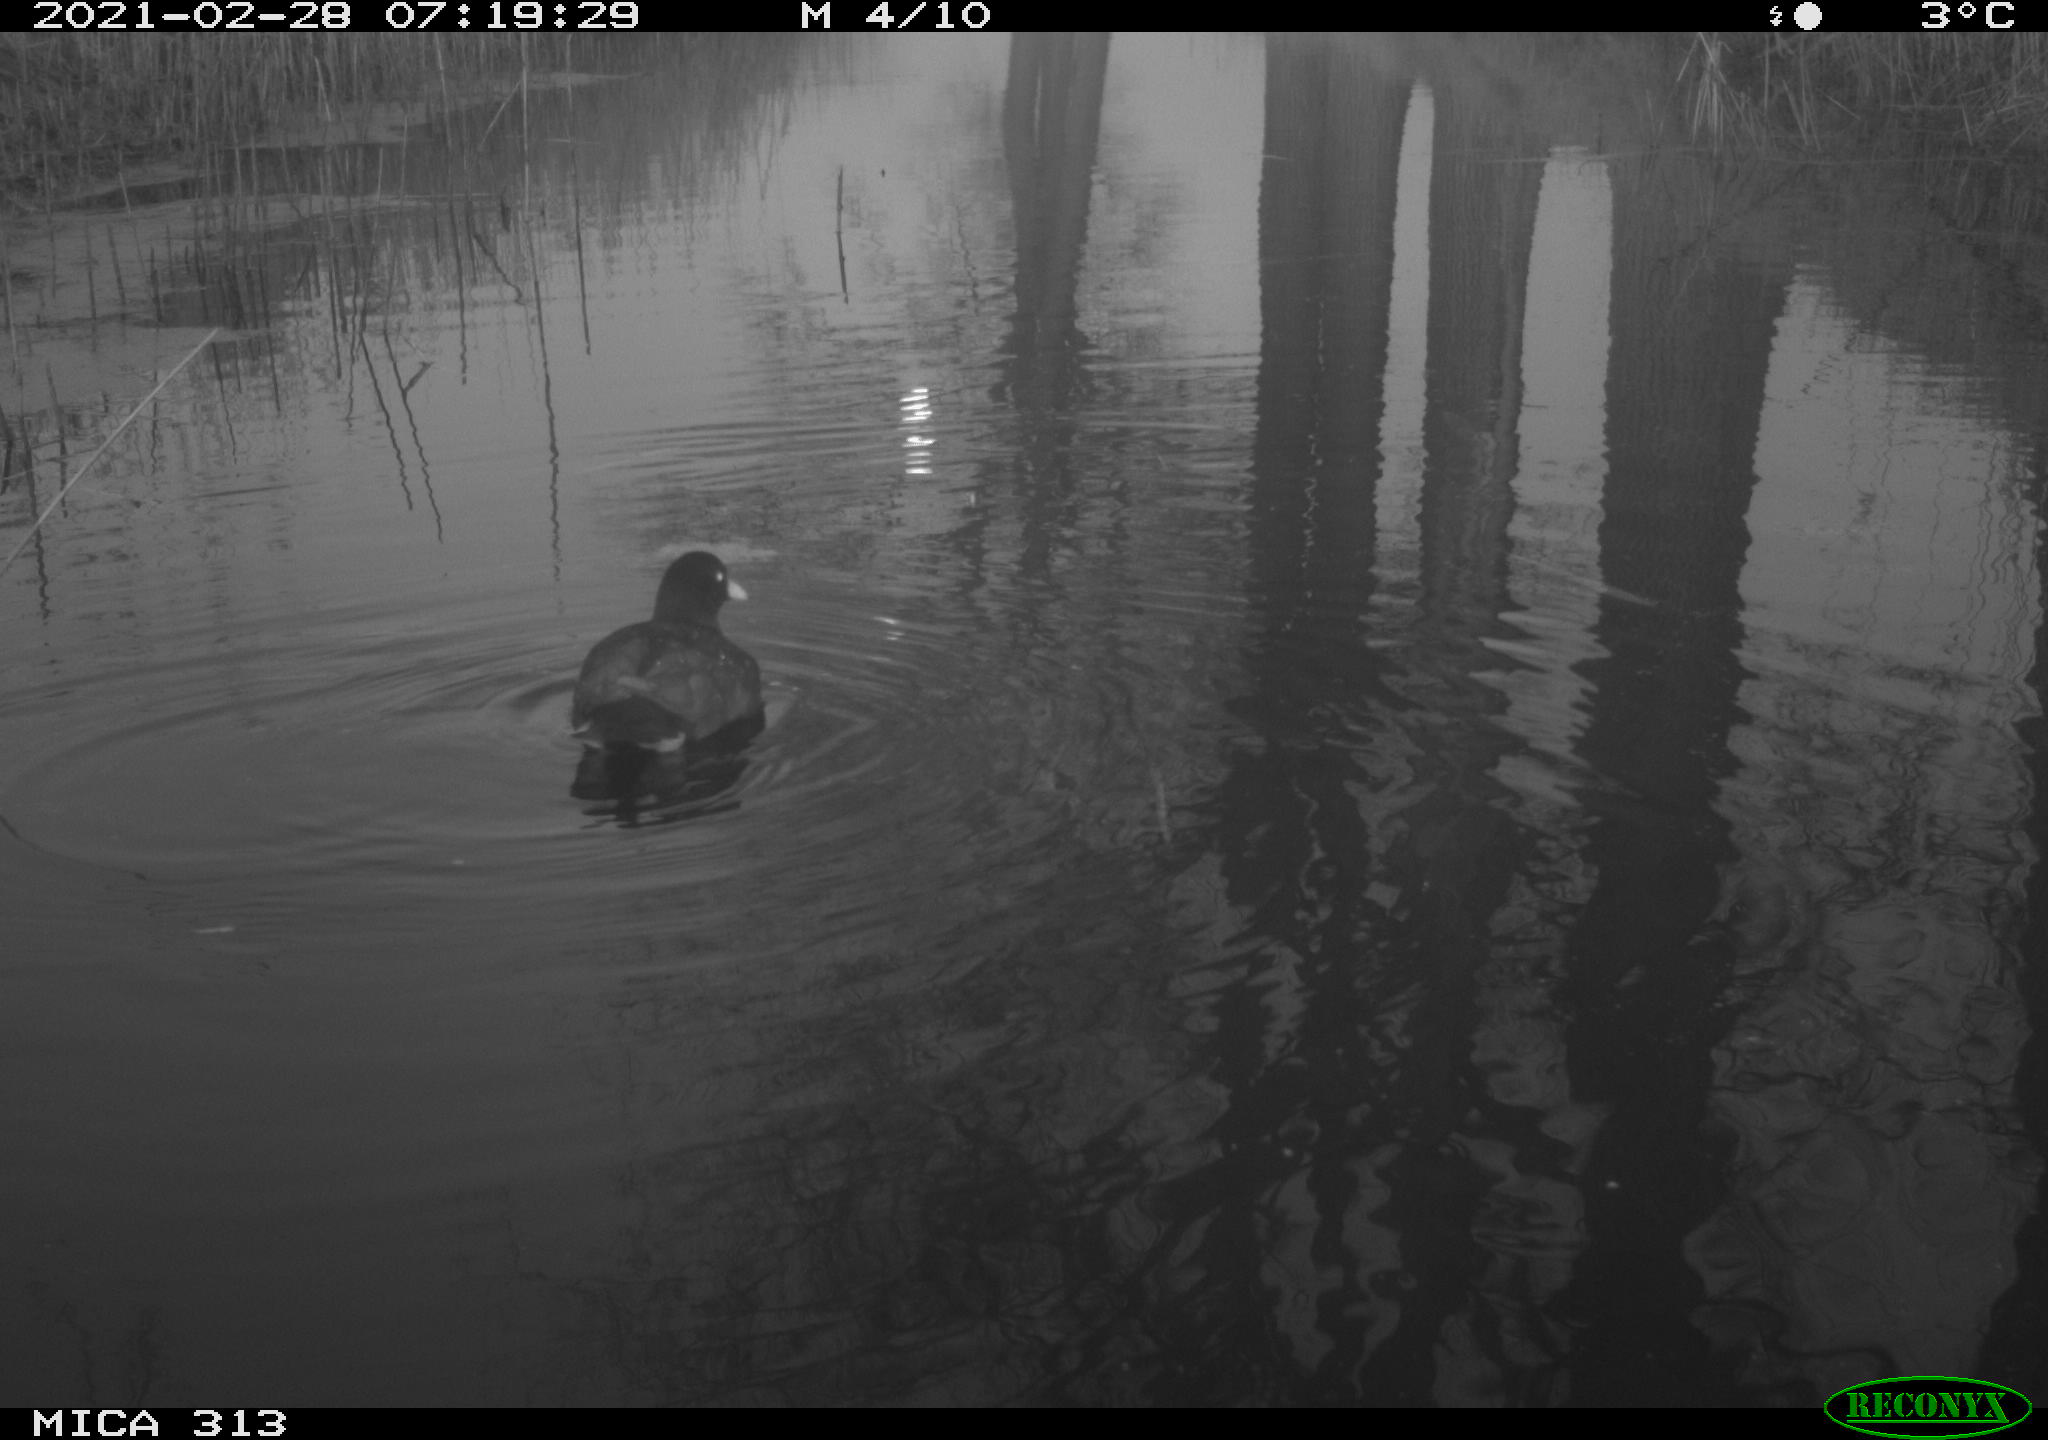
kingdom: Animalia
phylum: Chordata
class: Aves
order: Anseriformes
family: Anatidae
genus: Anas
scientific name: Anas
